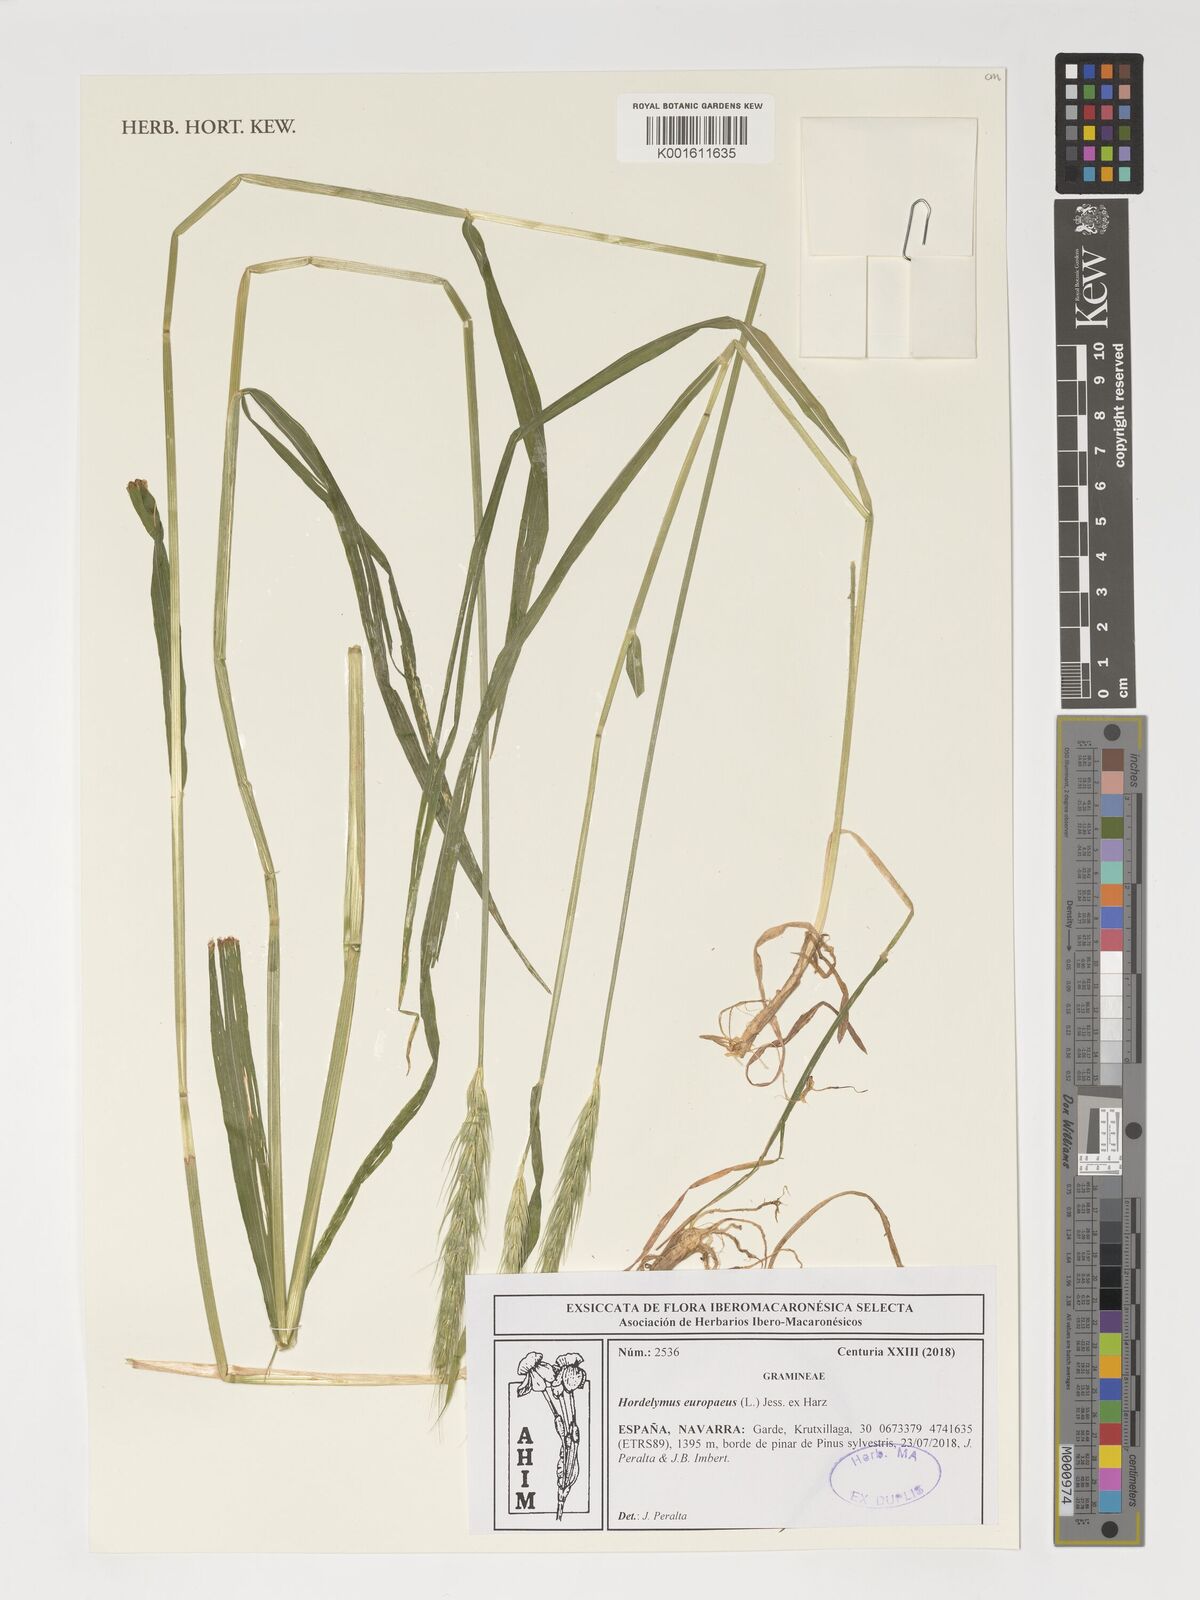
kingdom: Plantae
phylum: Tracheophyta
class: Liliopsida
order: Poales
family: Poaceae
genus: Hordelymus
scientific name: Hordelymus europaeus
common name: Wood-barley
